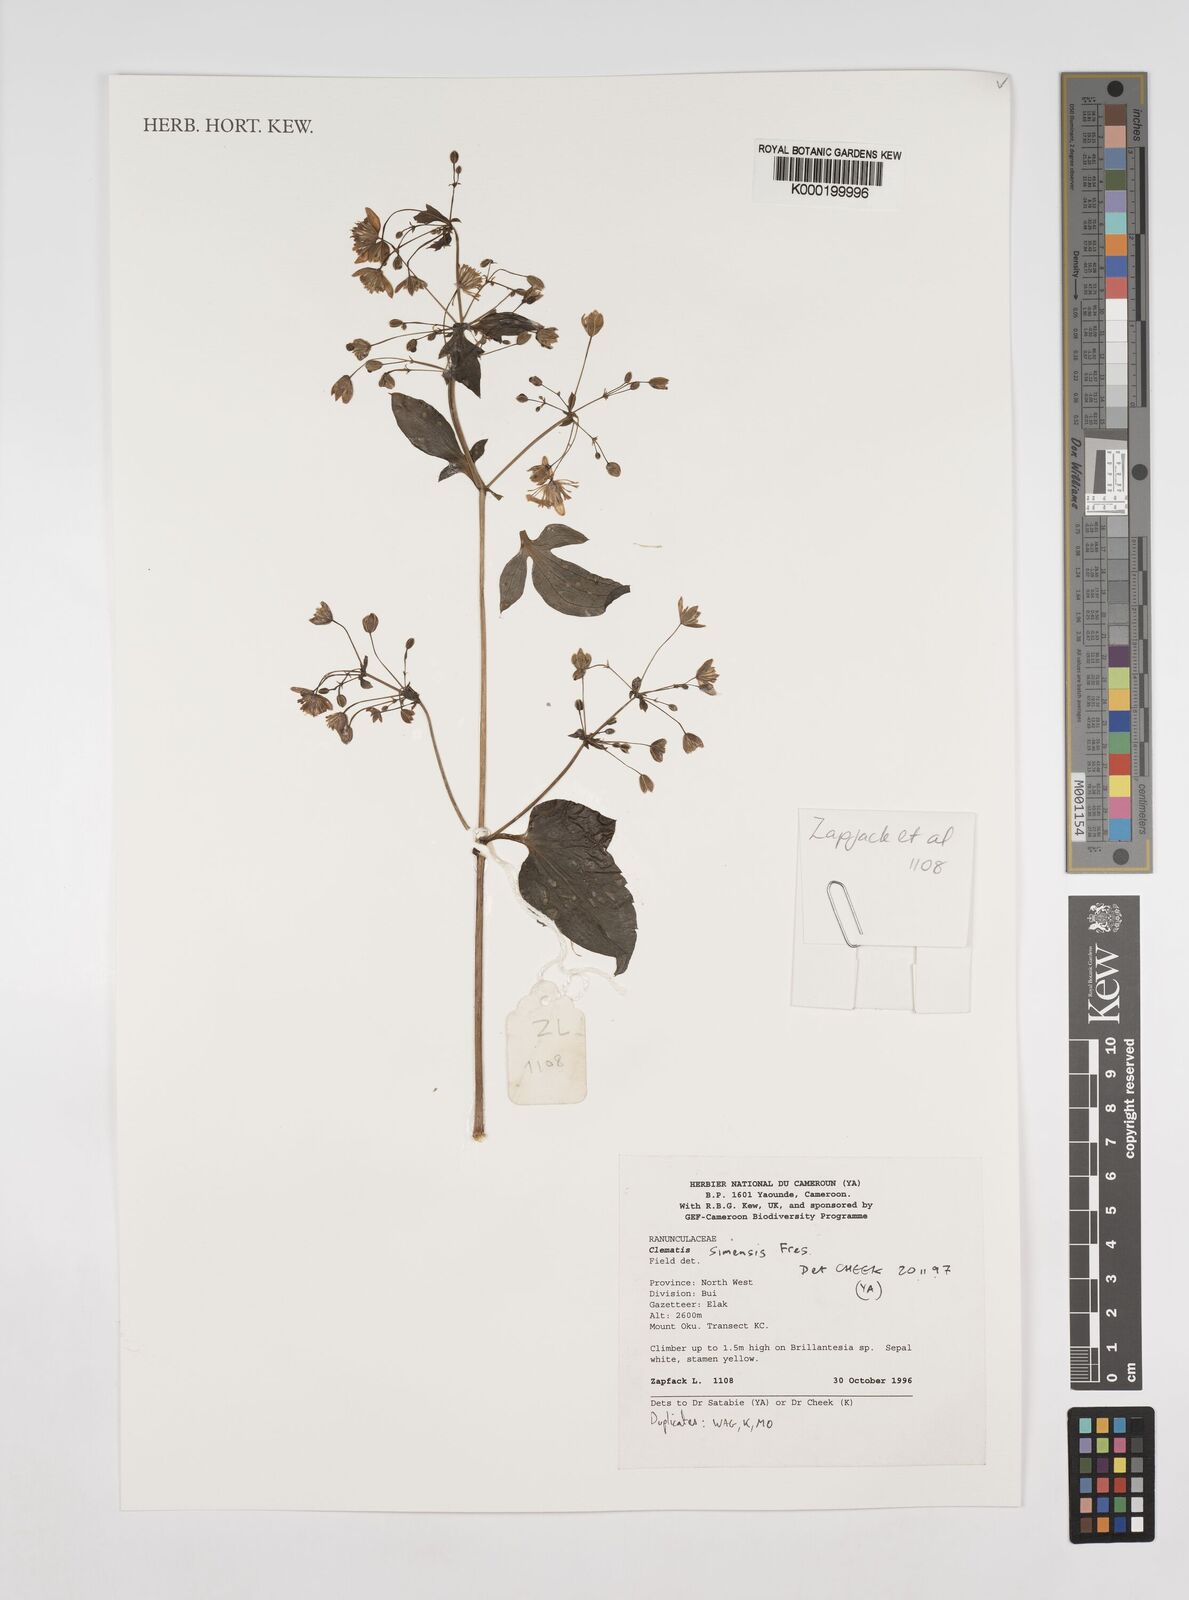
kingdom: Plantae
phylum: Tracheophyta
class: Magnoliopsida
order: Ranunculales
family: Ranunculaceae
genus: Clematis
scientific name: Clematis simensis
